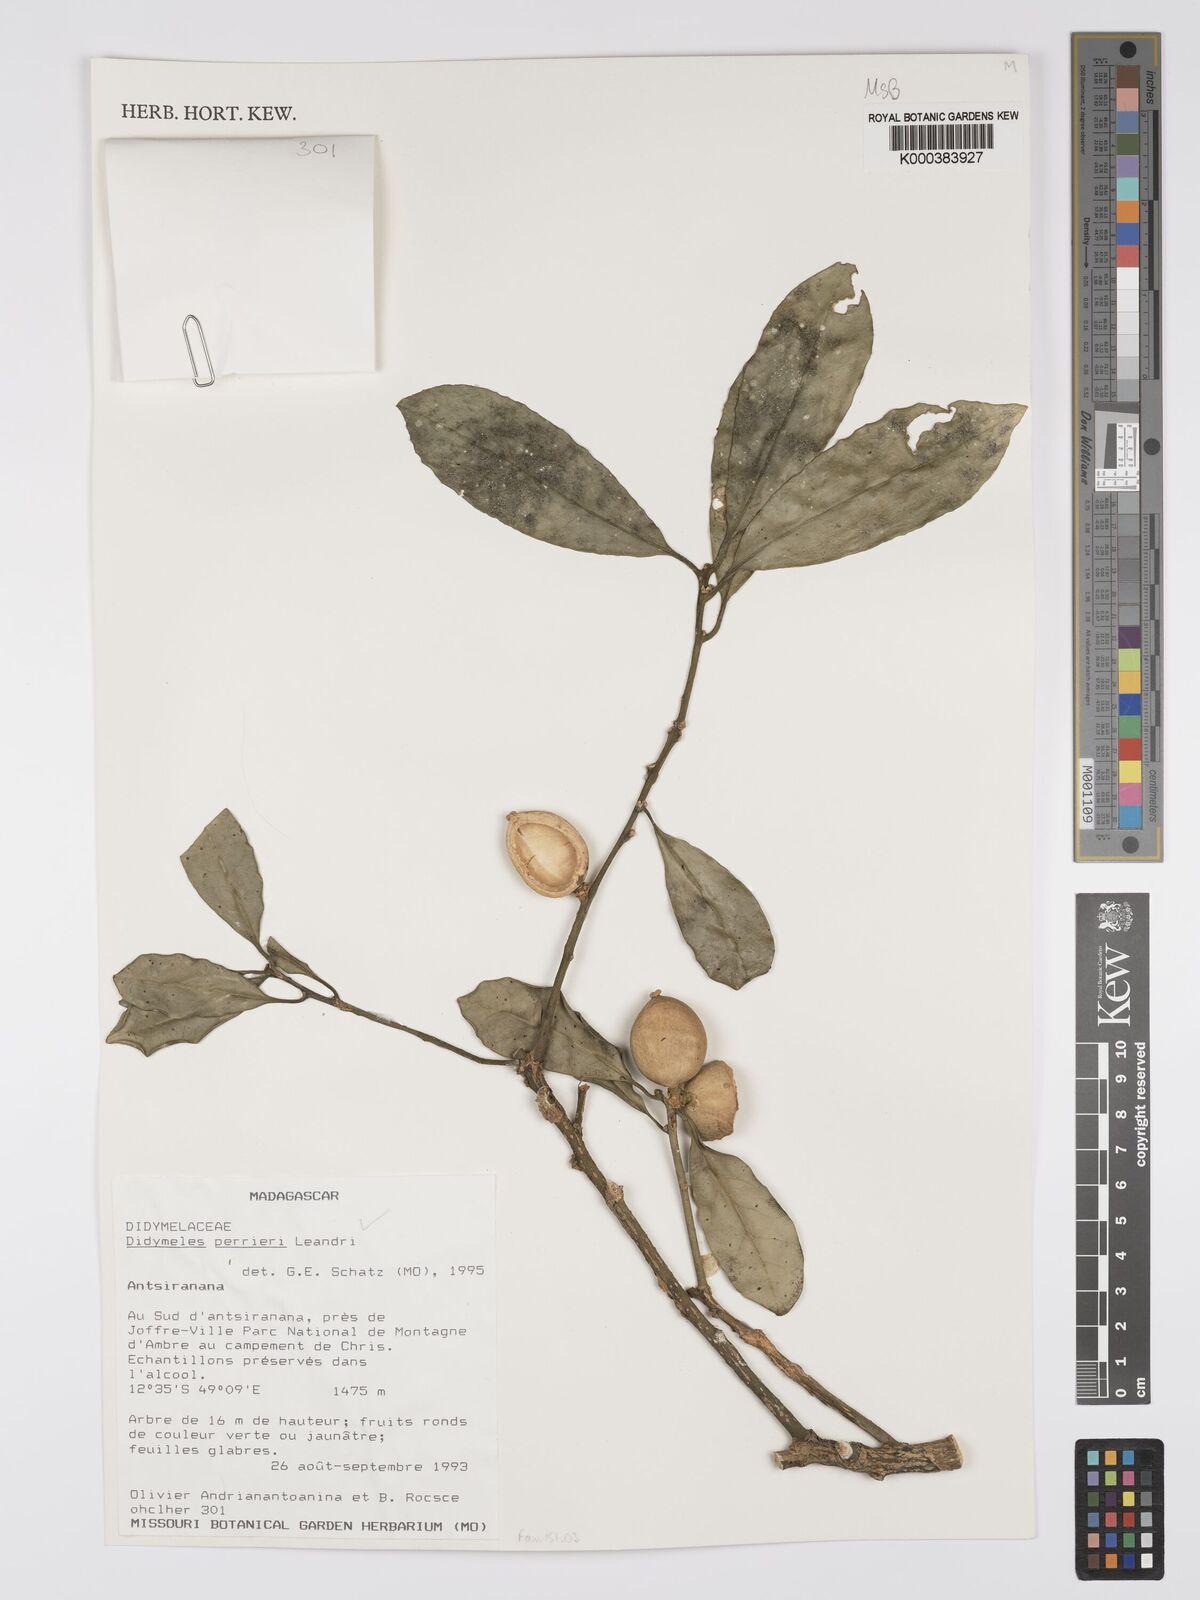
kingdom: Plantae
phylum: Tracheophyta
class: Magnoliopsida
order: Buxales
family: Didymelaceae
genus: Didymeles
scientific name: Didymeles perrieri
